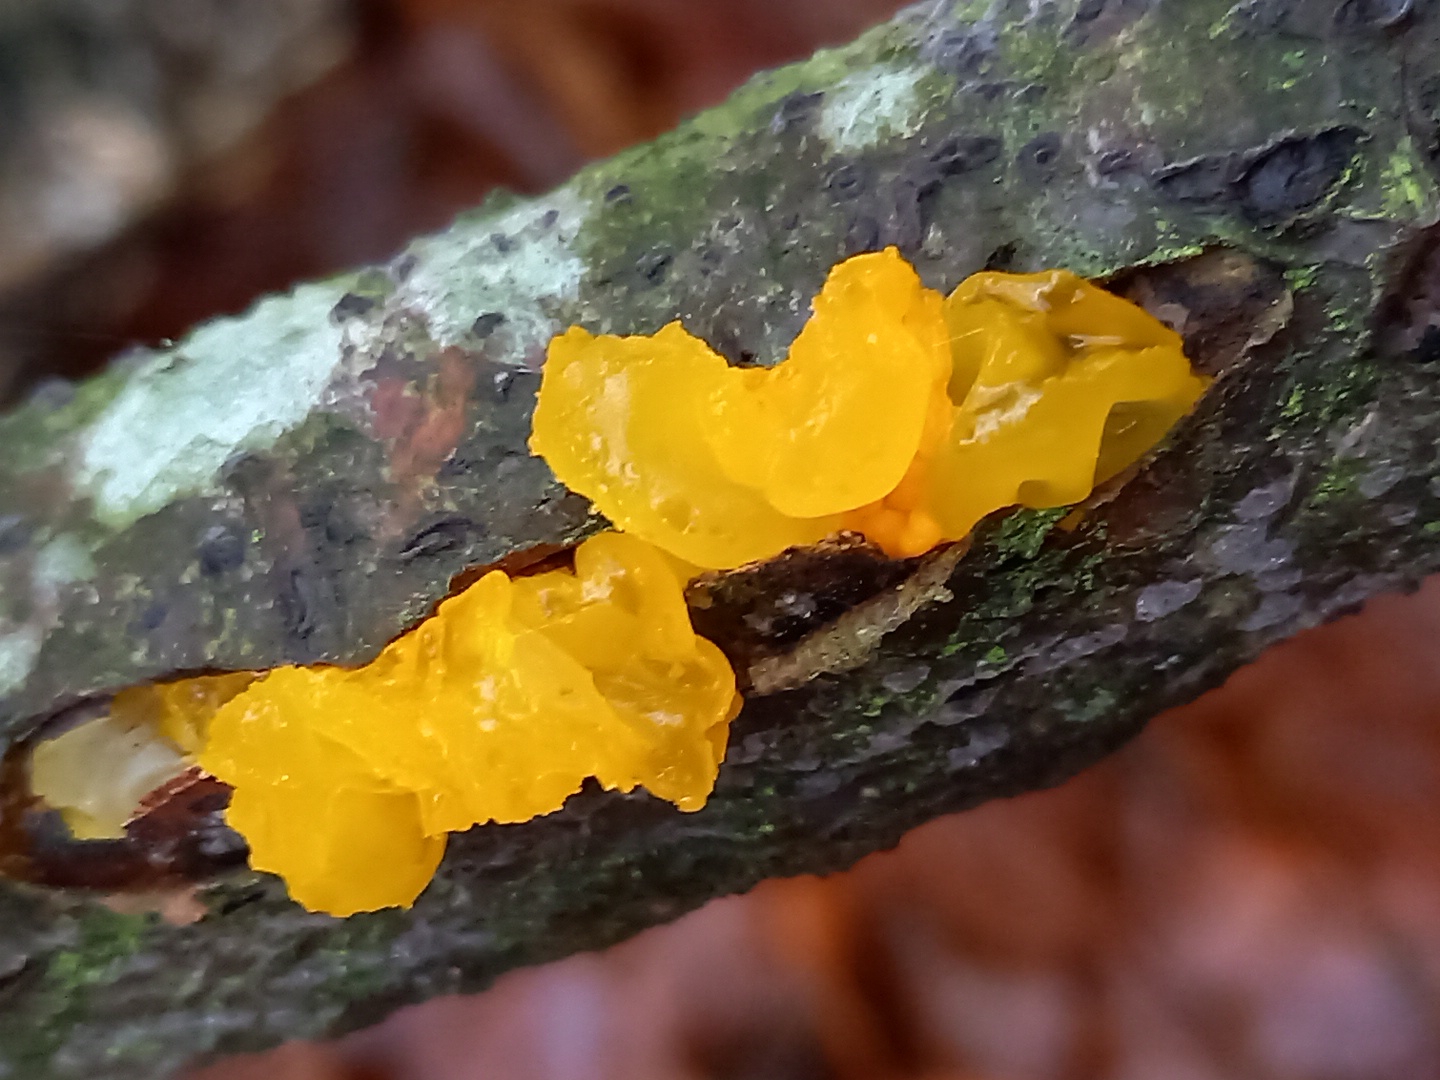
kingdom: Fungi
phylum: Basidiomycota
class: Tremellomycetes
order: Tremellales
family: Tremellaceae
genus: Tremella
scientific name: Tremella mesenterica
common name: gul bævresvamp
